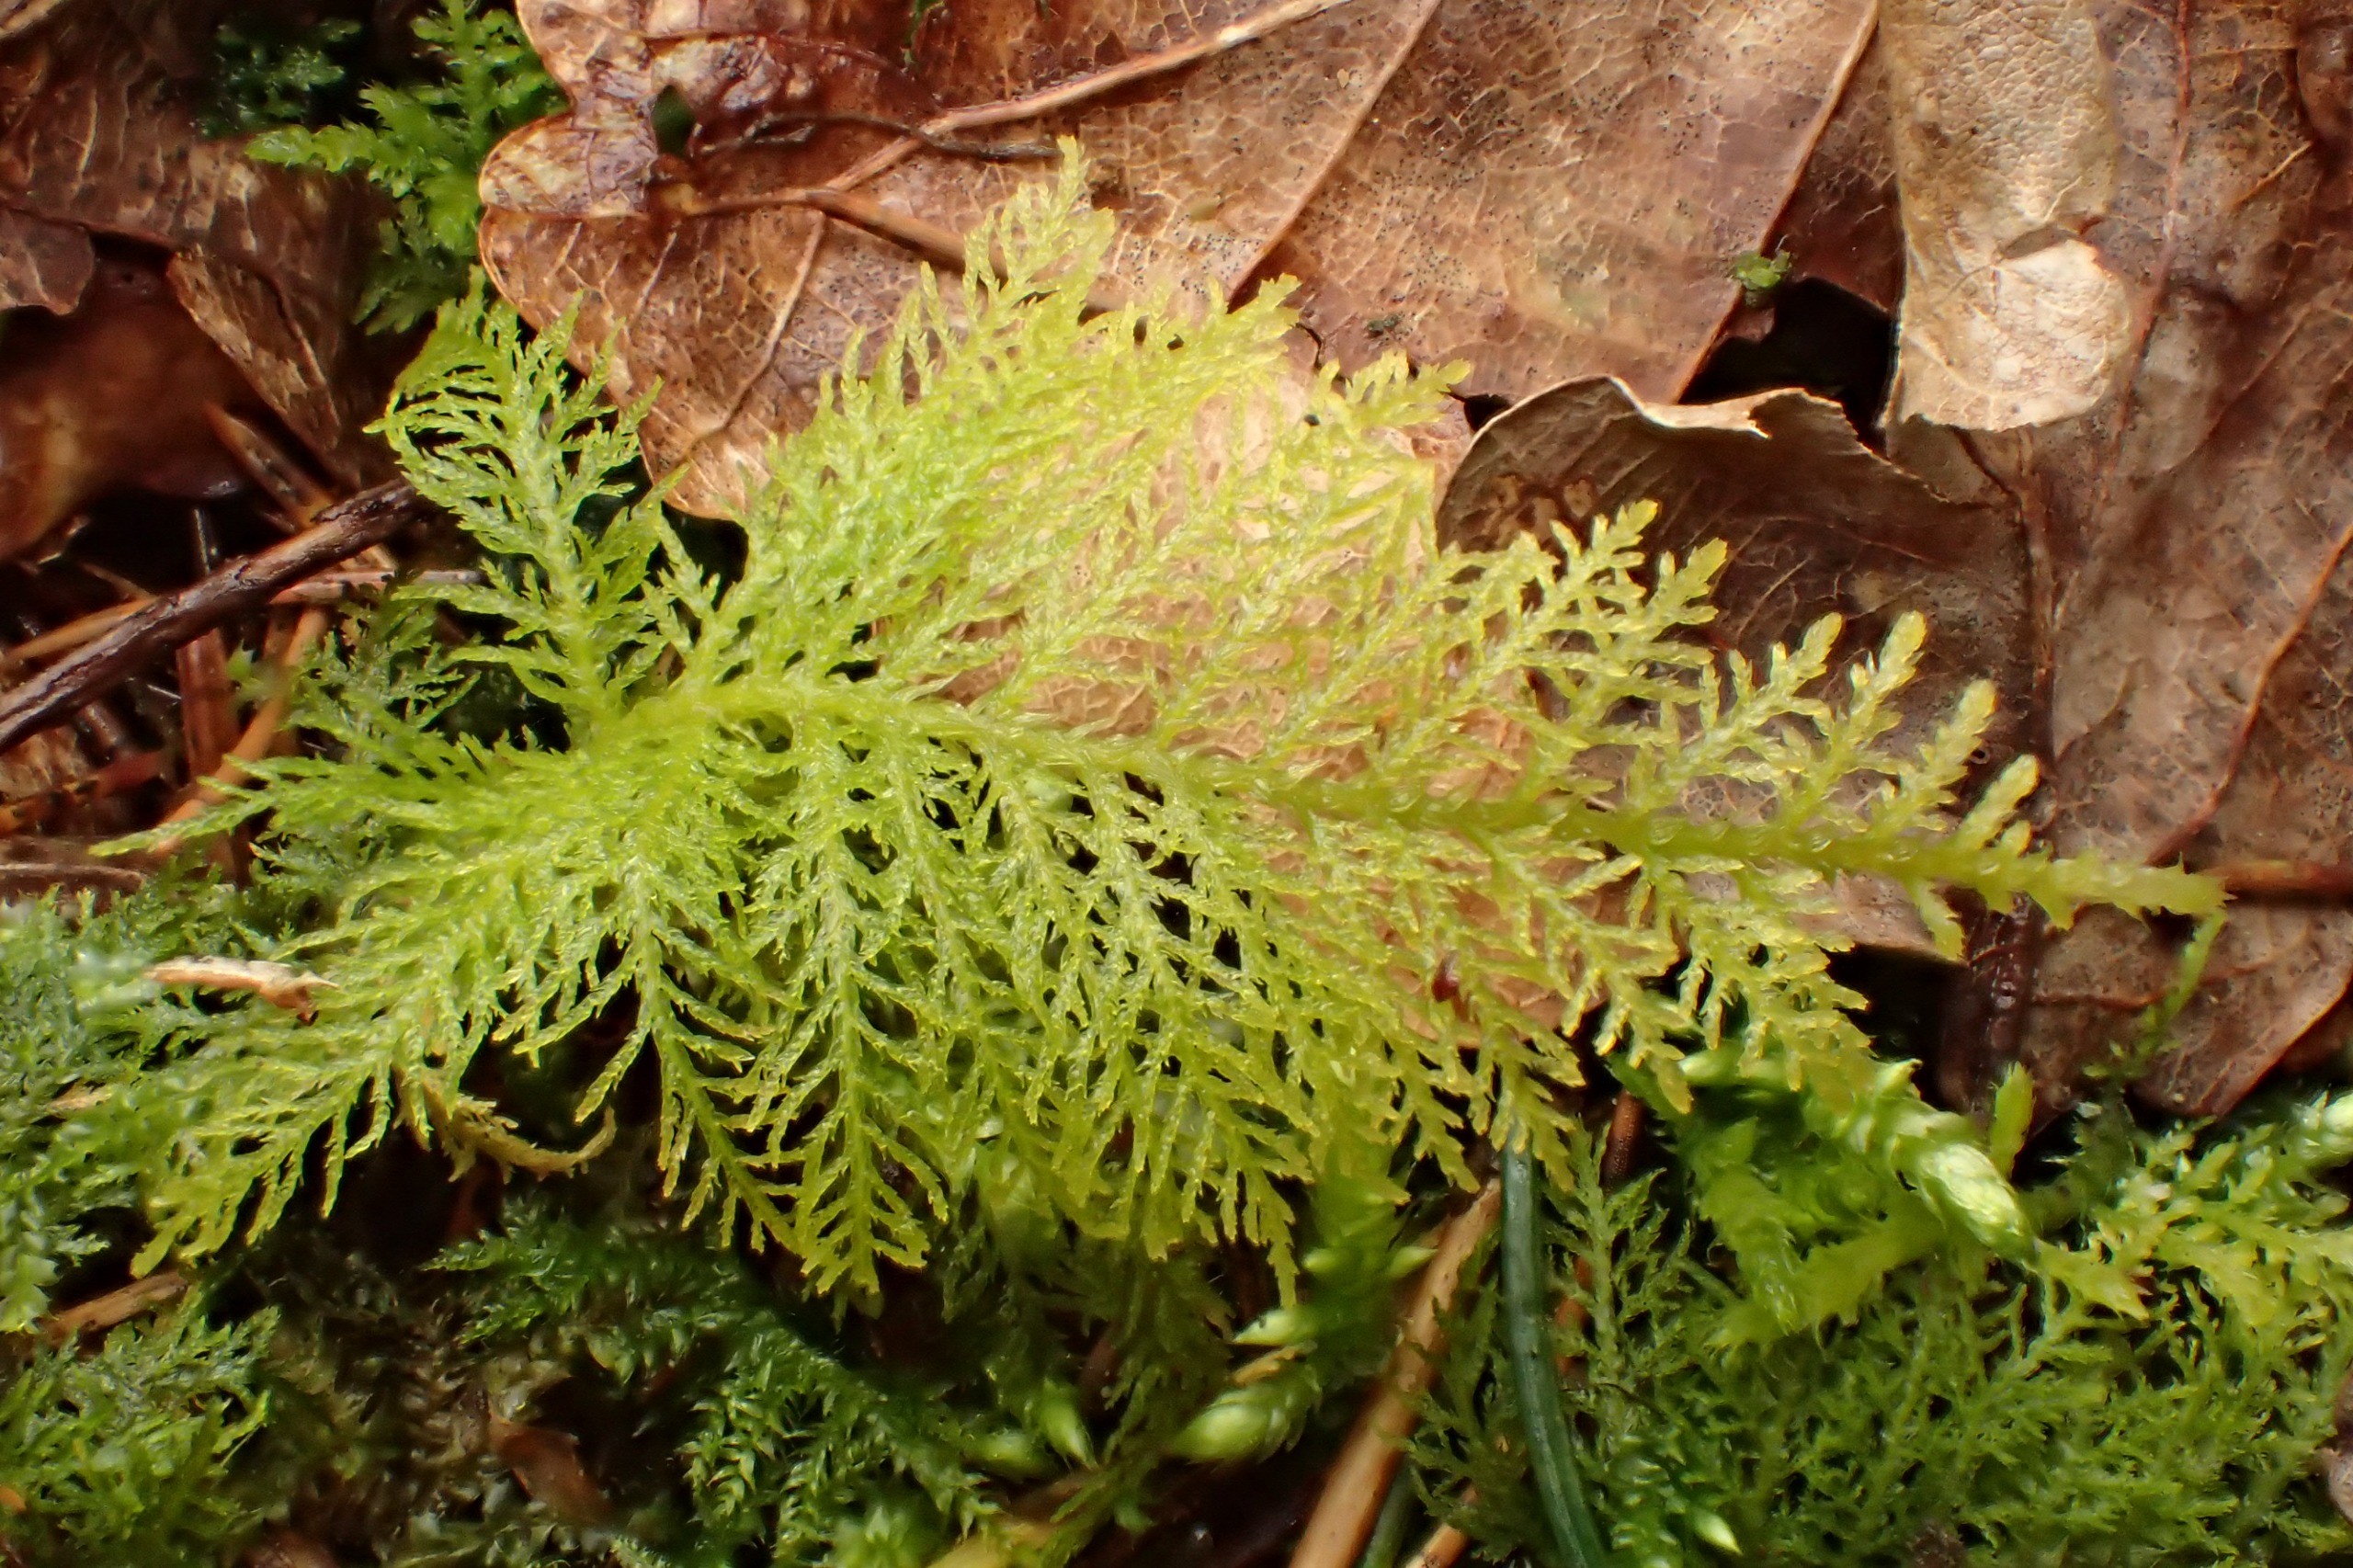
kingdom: Plantae
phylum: Bryophyta
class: Bryopsida
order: Hypnales
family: Thuidiaceae
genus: Thuidium
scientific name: Thuidium tamariscinum
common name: Pryd-bregnemos
